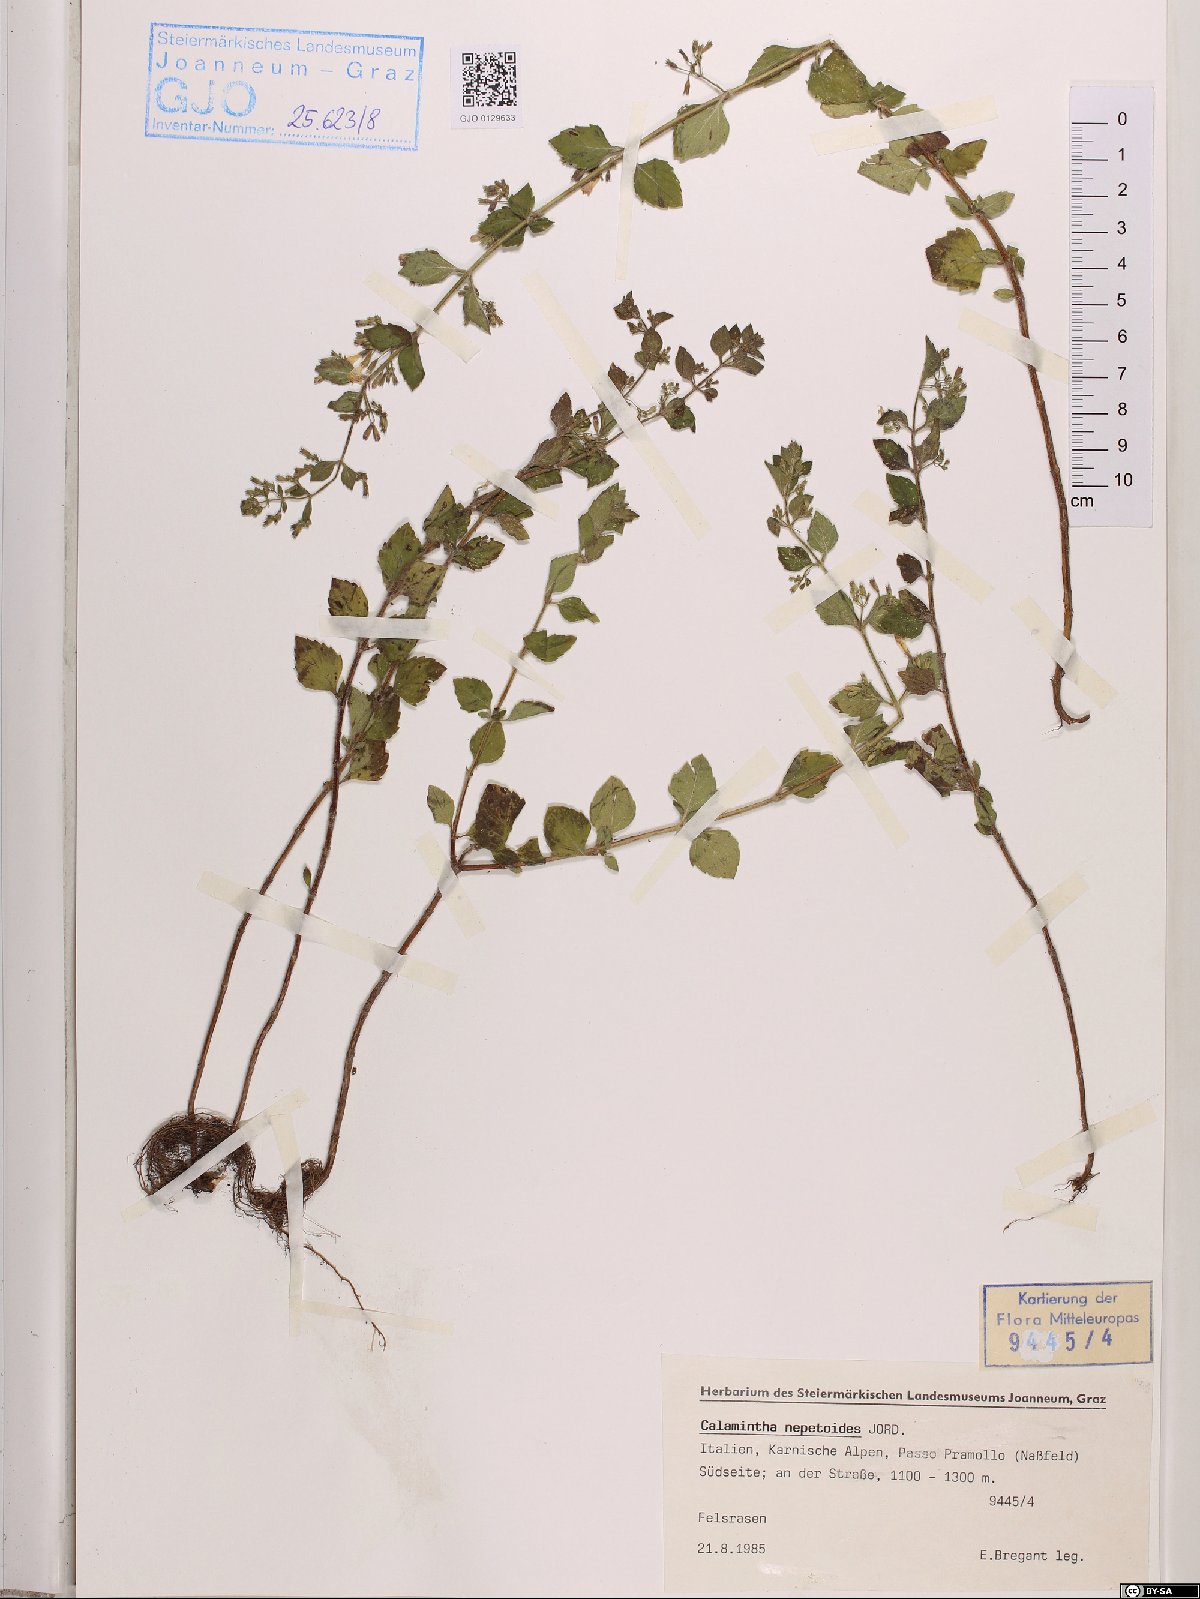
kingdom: Plantae
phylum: Tracheophyta
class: Magnoliopsida
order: Lamiales
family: Lamiaceae
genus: Clinopodium
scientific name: Clinopodium nepeta
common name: Lesser calamint
